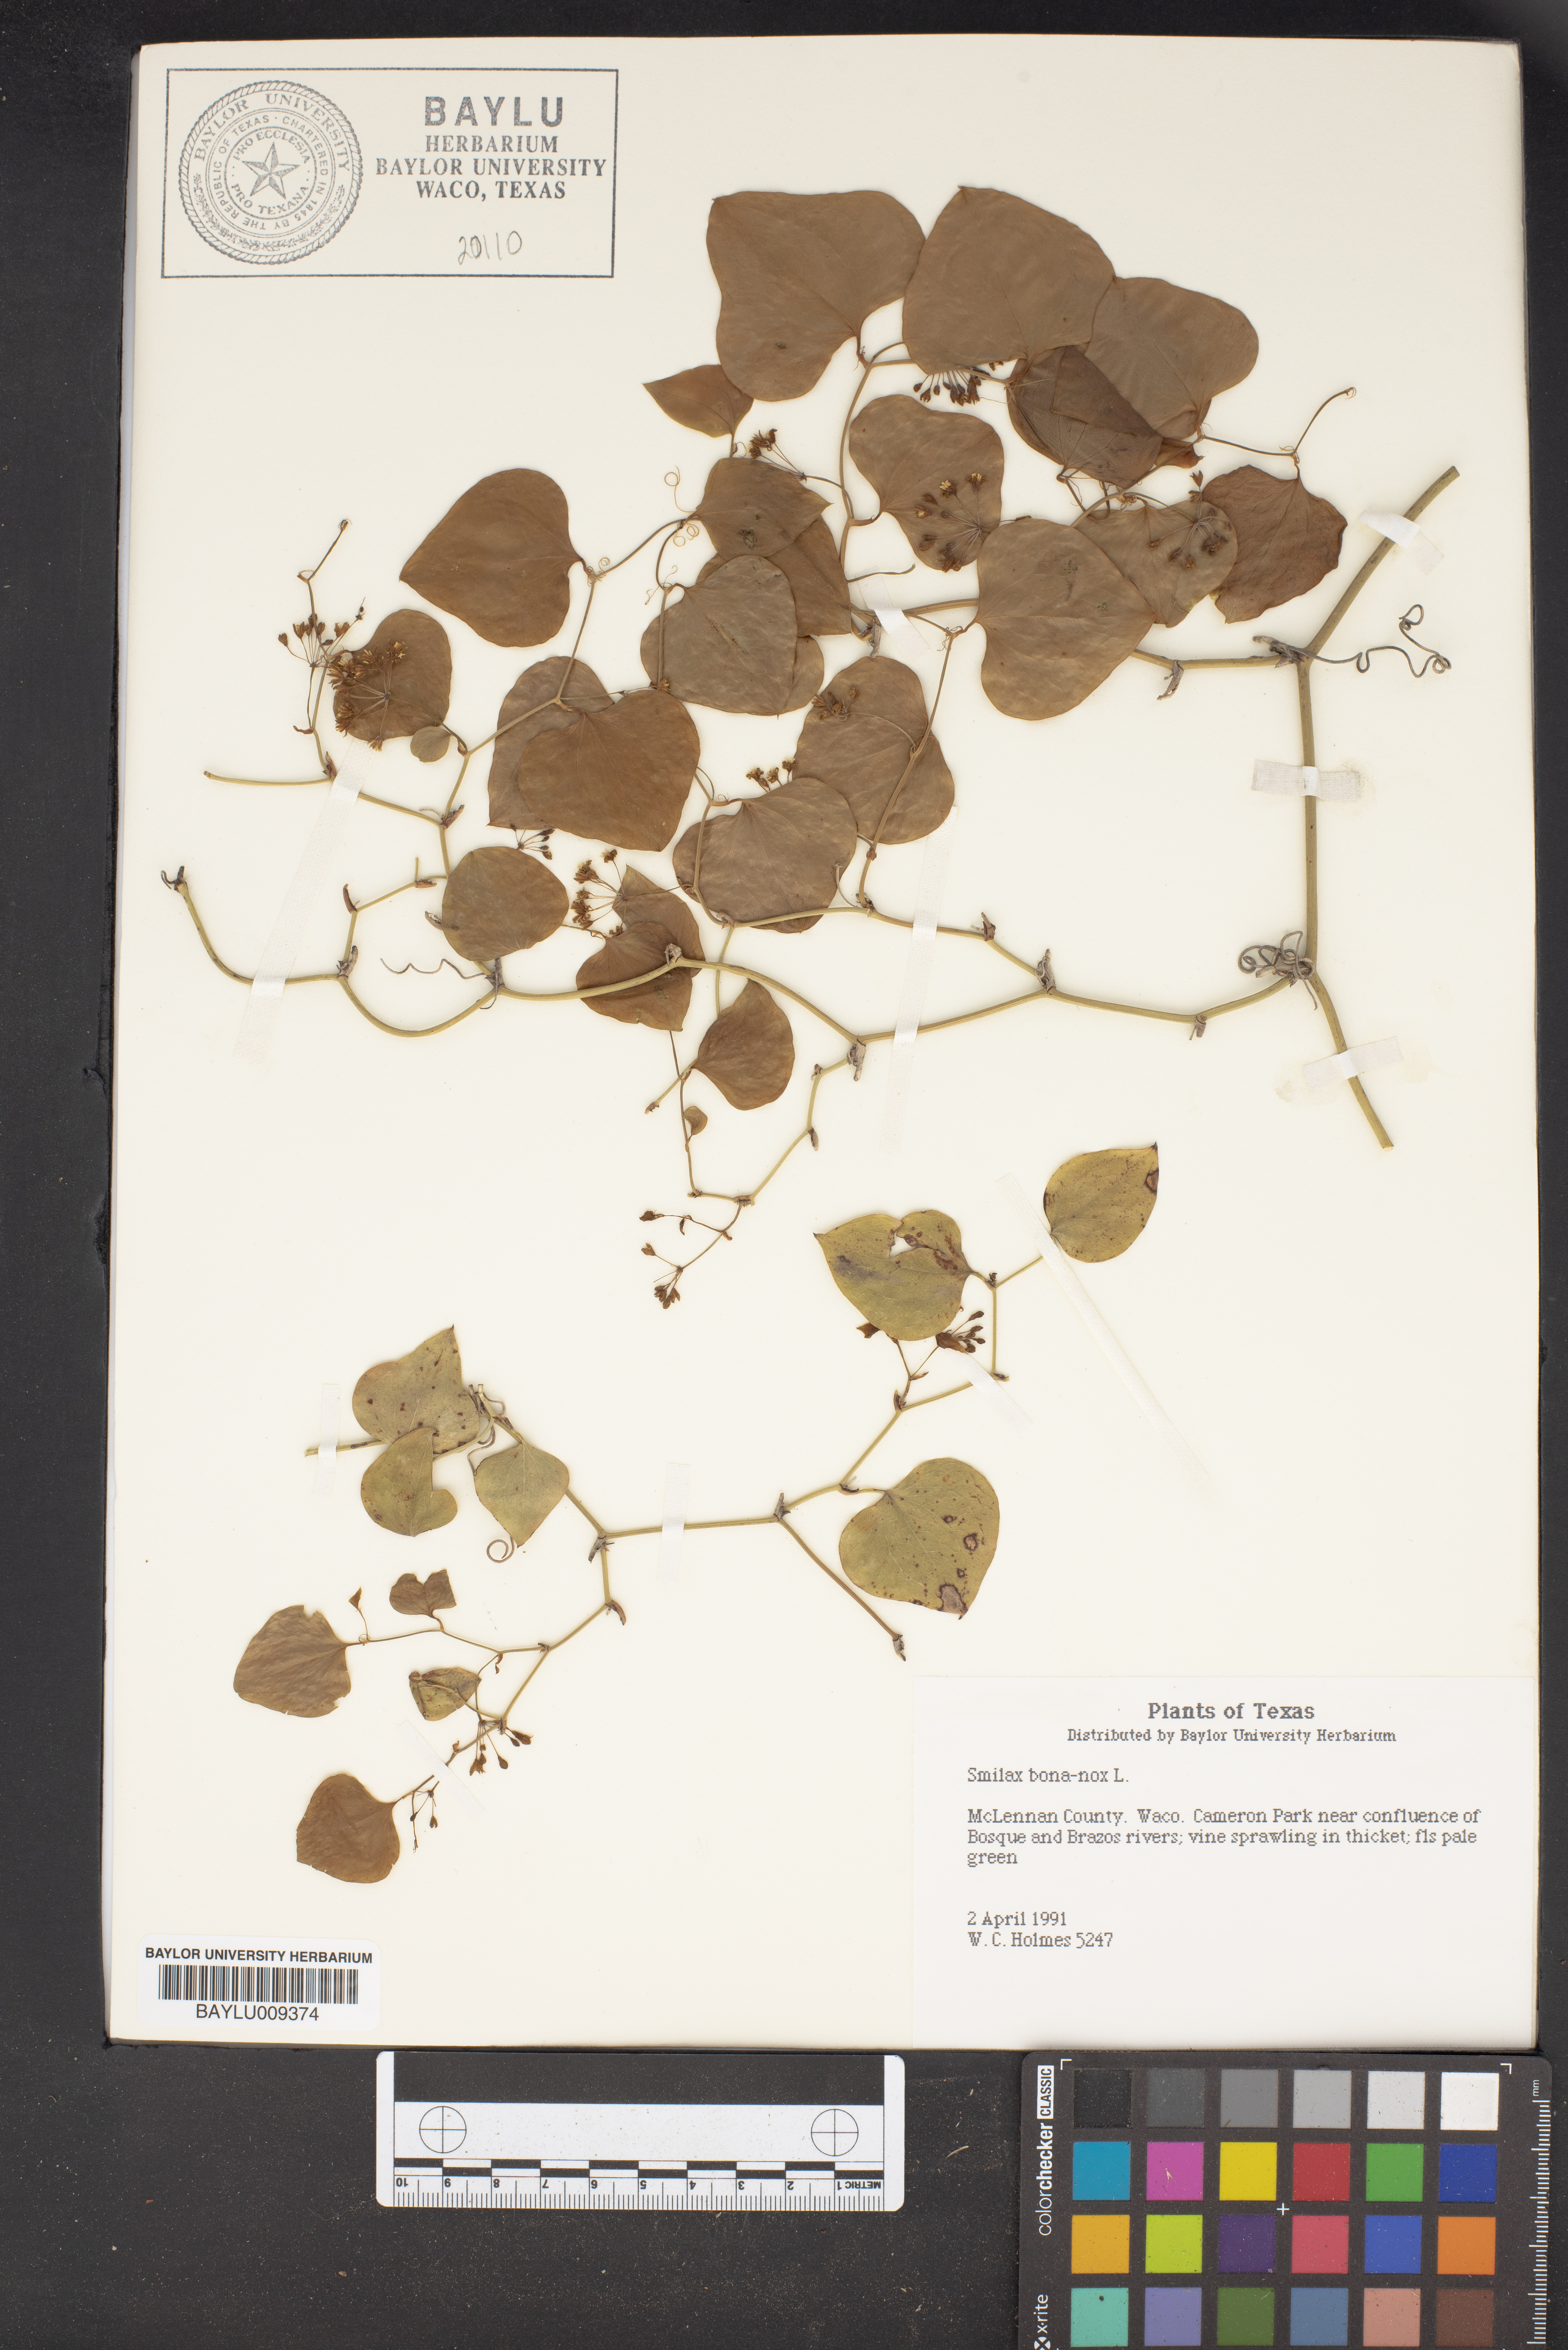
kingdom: Plantae
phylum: Tracheophyta
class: Liliopsida
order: Liliales
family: Smilacaceae
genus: Smilax
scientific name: Smilax bona-nox
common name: Catbrier
